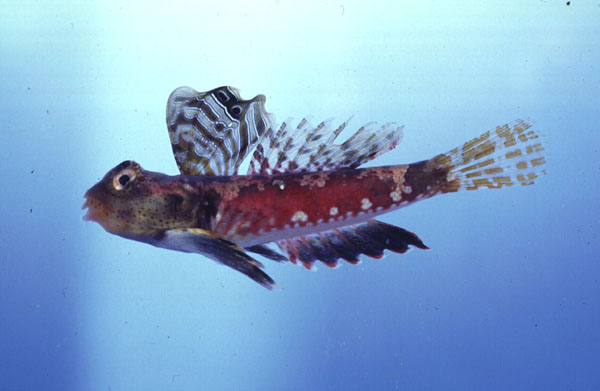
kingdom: Animalia
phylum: Chordata
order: Perciformes
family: Callionymidae
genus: Synchiropus
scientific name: Synchiropus stellatus
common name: Starry dragonet
